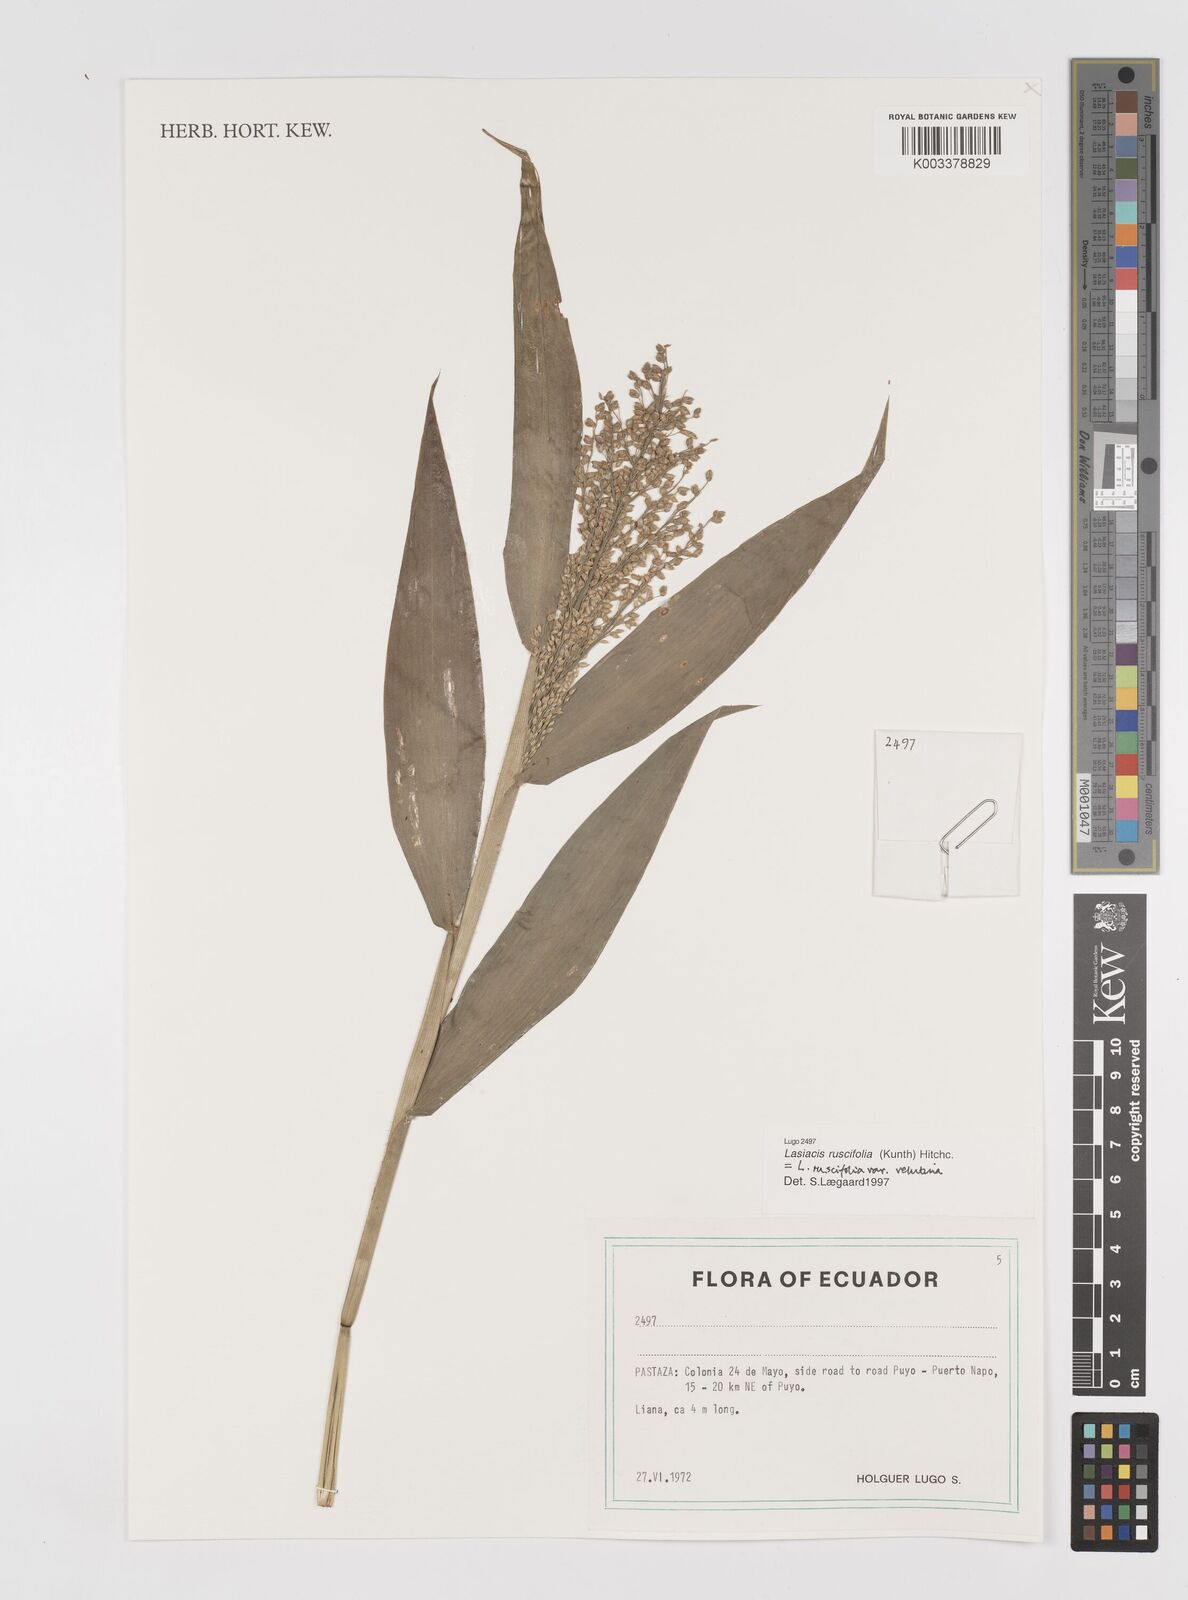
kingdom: Plantae
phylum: Tracheophyta
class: Liliopsida
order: Poales
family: Poaceae
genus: Lasiacis
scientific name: Lasiacis maculata
